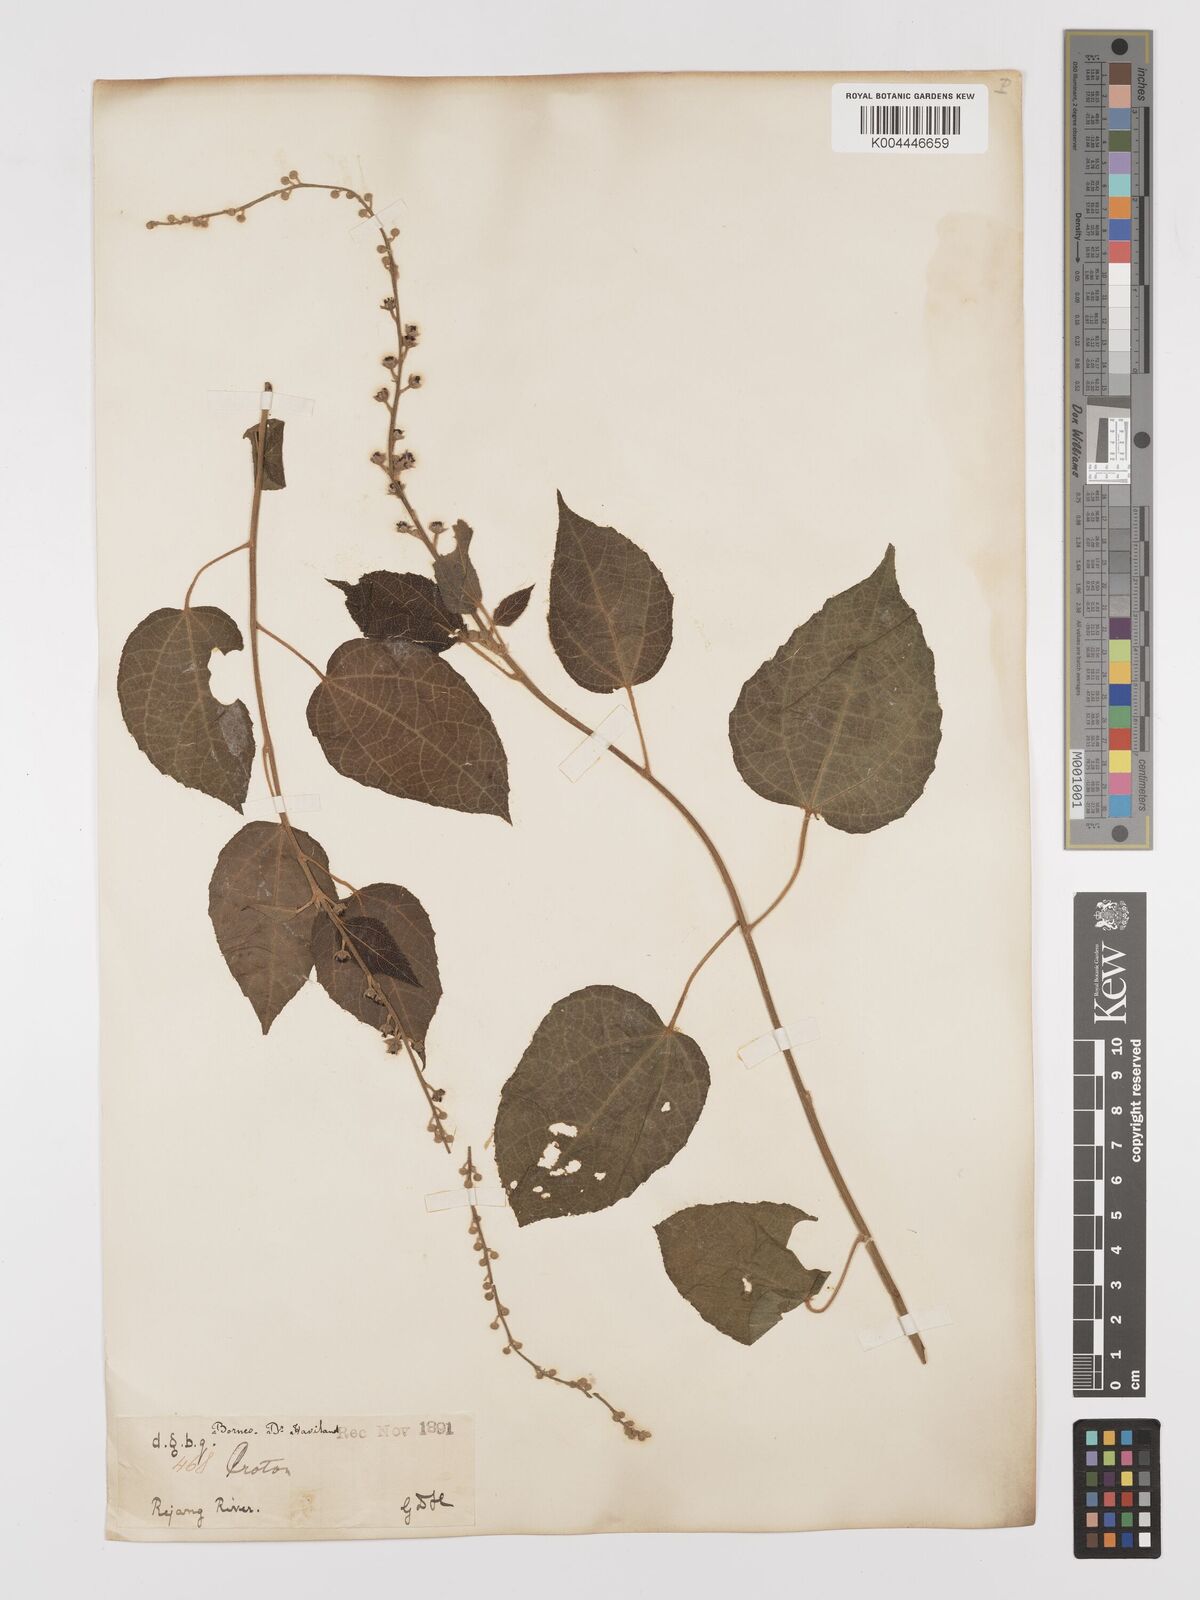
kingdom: Plantae
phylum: Tracheophyta
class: Magnoliopsida
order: Malpighiales
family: Euphorbiaceae
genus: Croton
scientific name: Croton caudatus
